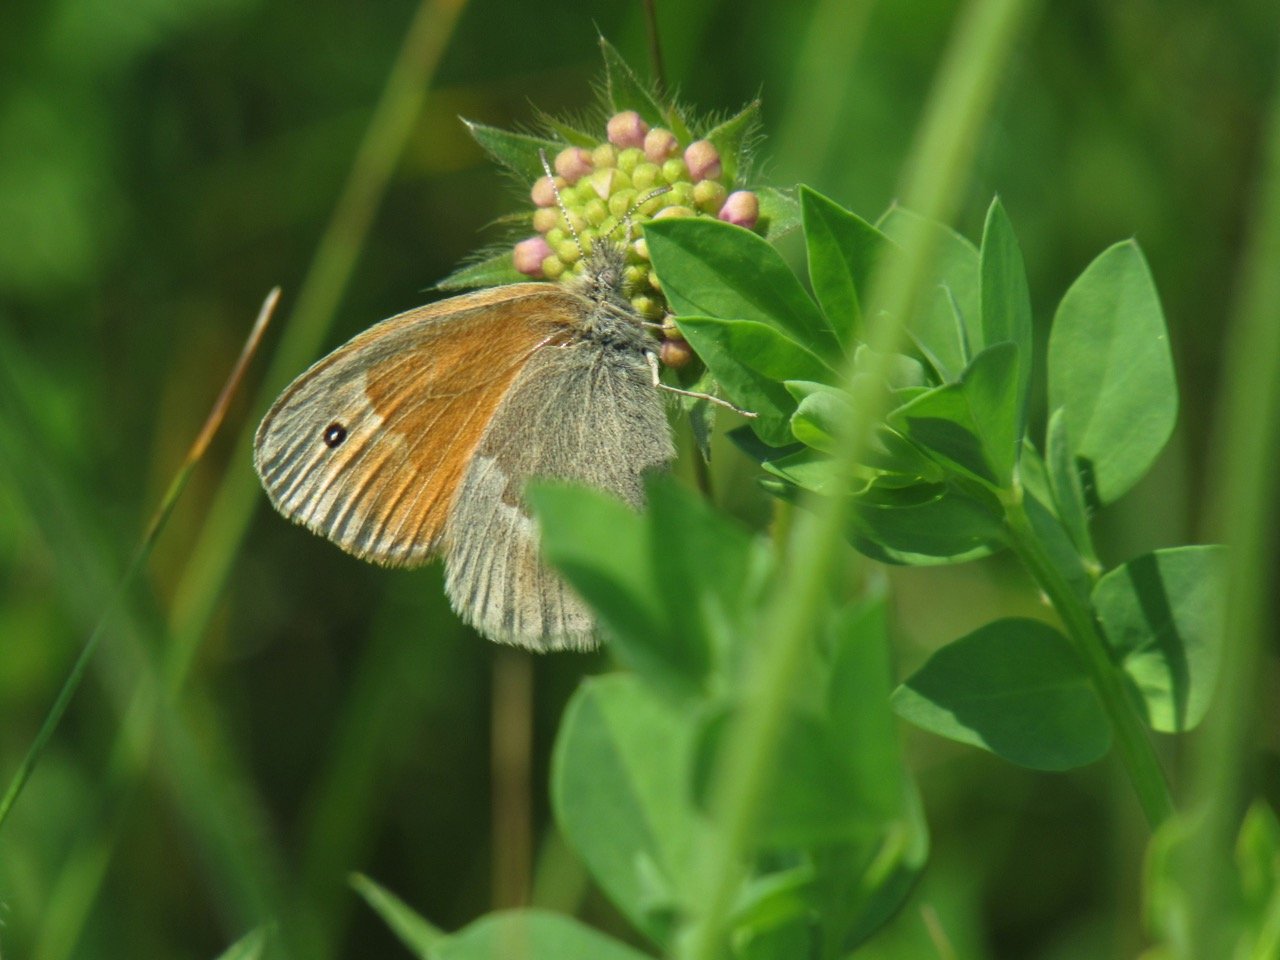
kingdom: Animalia
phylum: Arthropoda
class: Insecta
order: Lepidoptera
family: Nymphalidae
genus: Coenonympha
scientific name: Coenonympha tullia
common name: Large Heath
